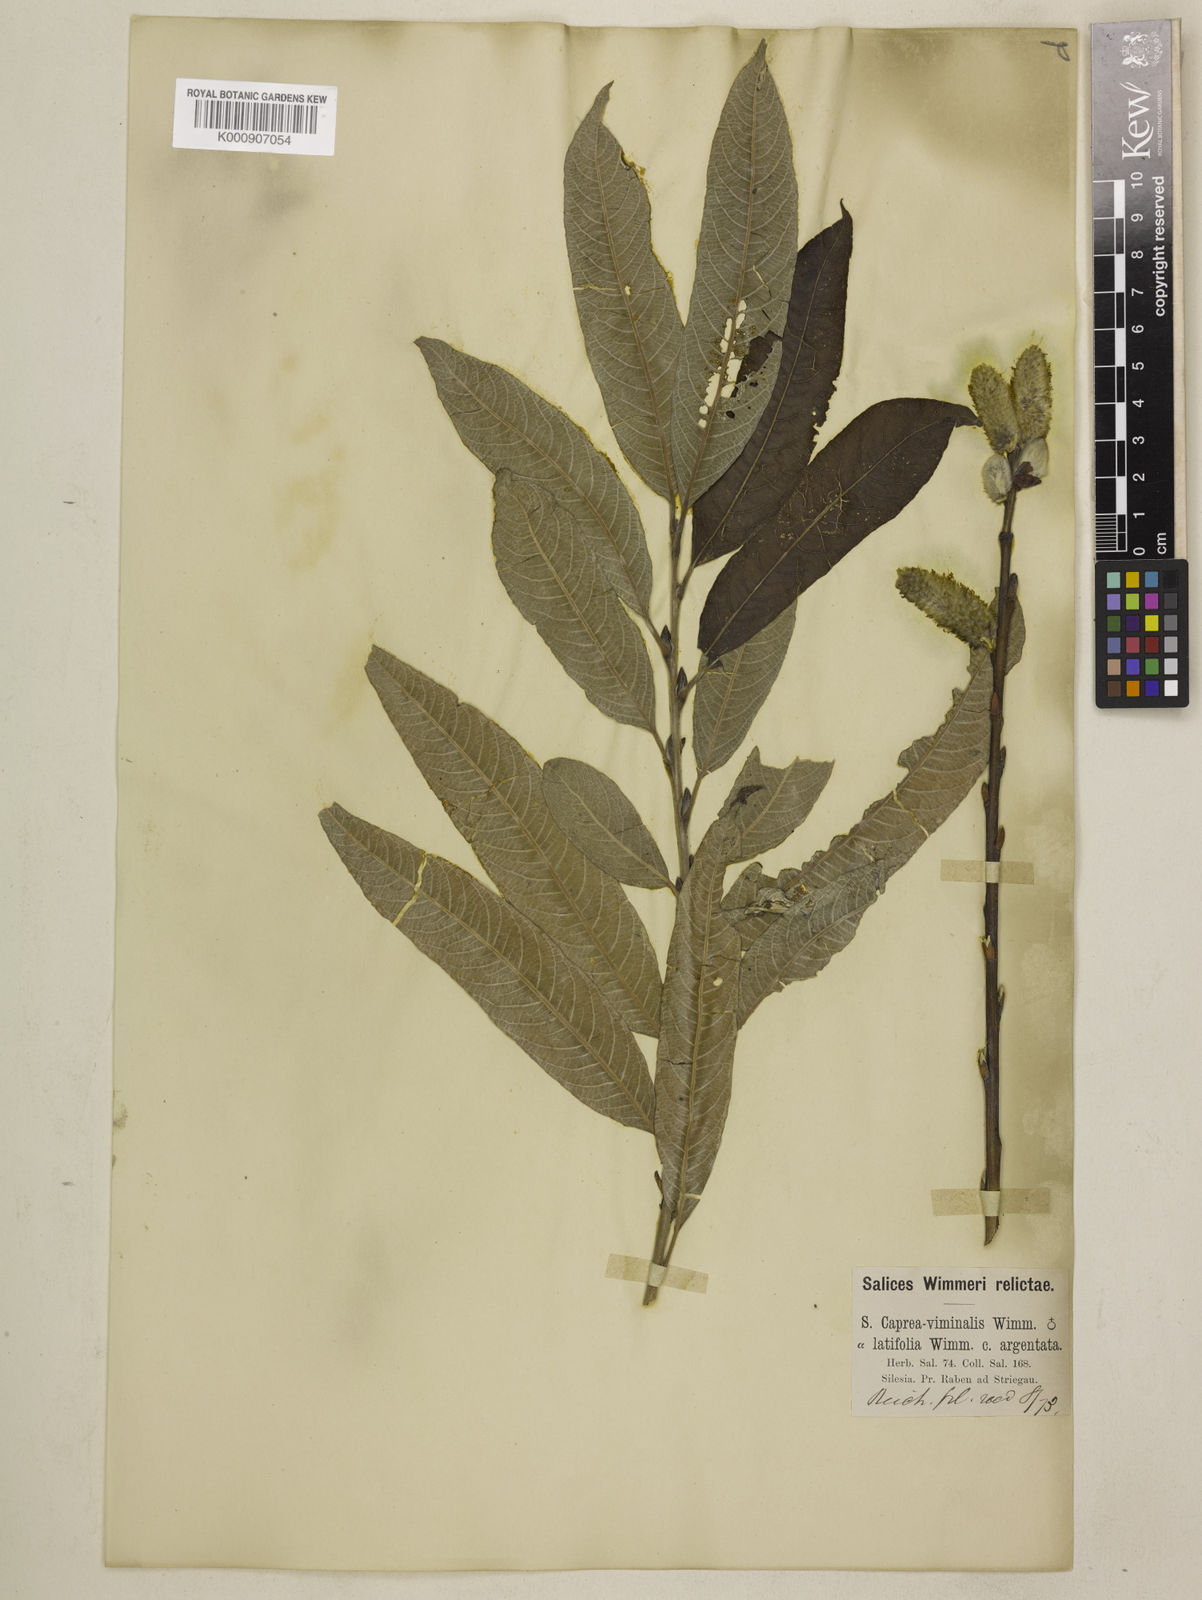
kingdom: Plantae
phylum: Tracheophyta
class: Magnoliopsida
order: Malpighiales
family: Salicaceae
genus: Salix
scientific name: Salix
